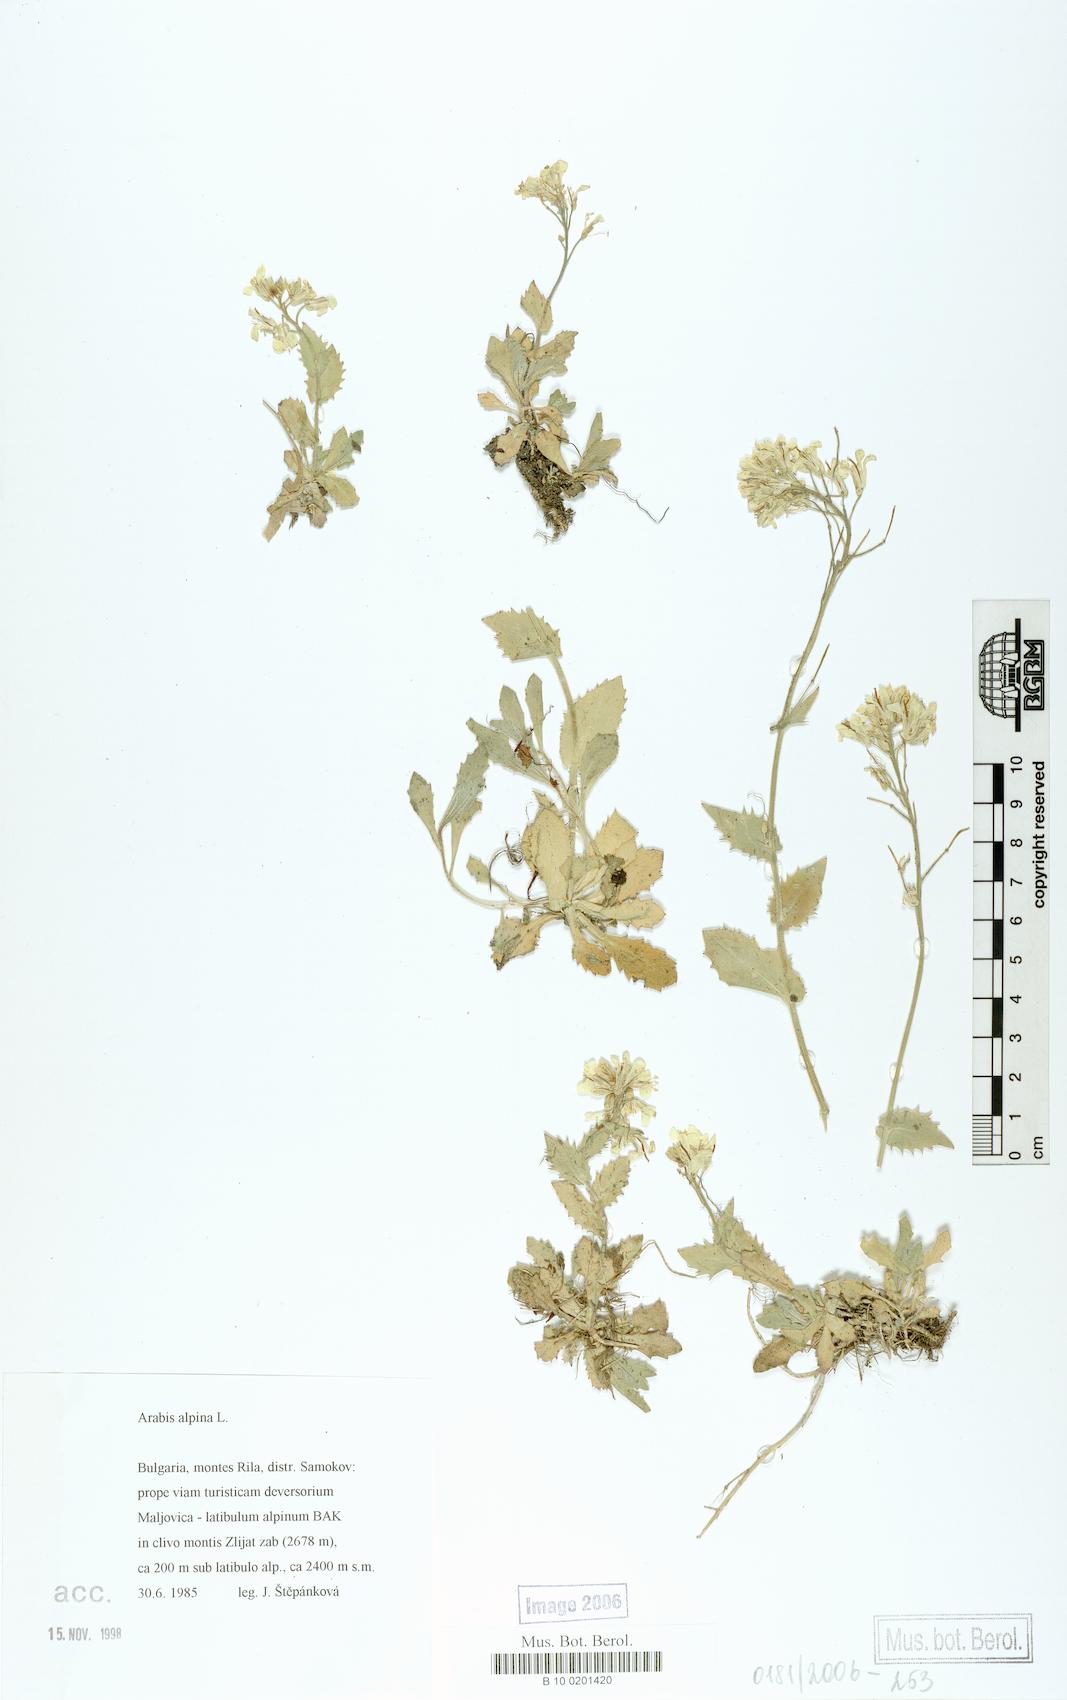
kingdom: Plantae
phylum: Tracheophyta
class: Magnoliopsida
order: Brassicales
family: Brassicaceae
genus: Arabis
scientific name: Arabis alpina
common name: Alpine rock-cress
